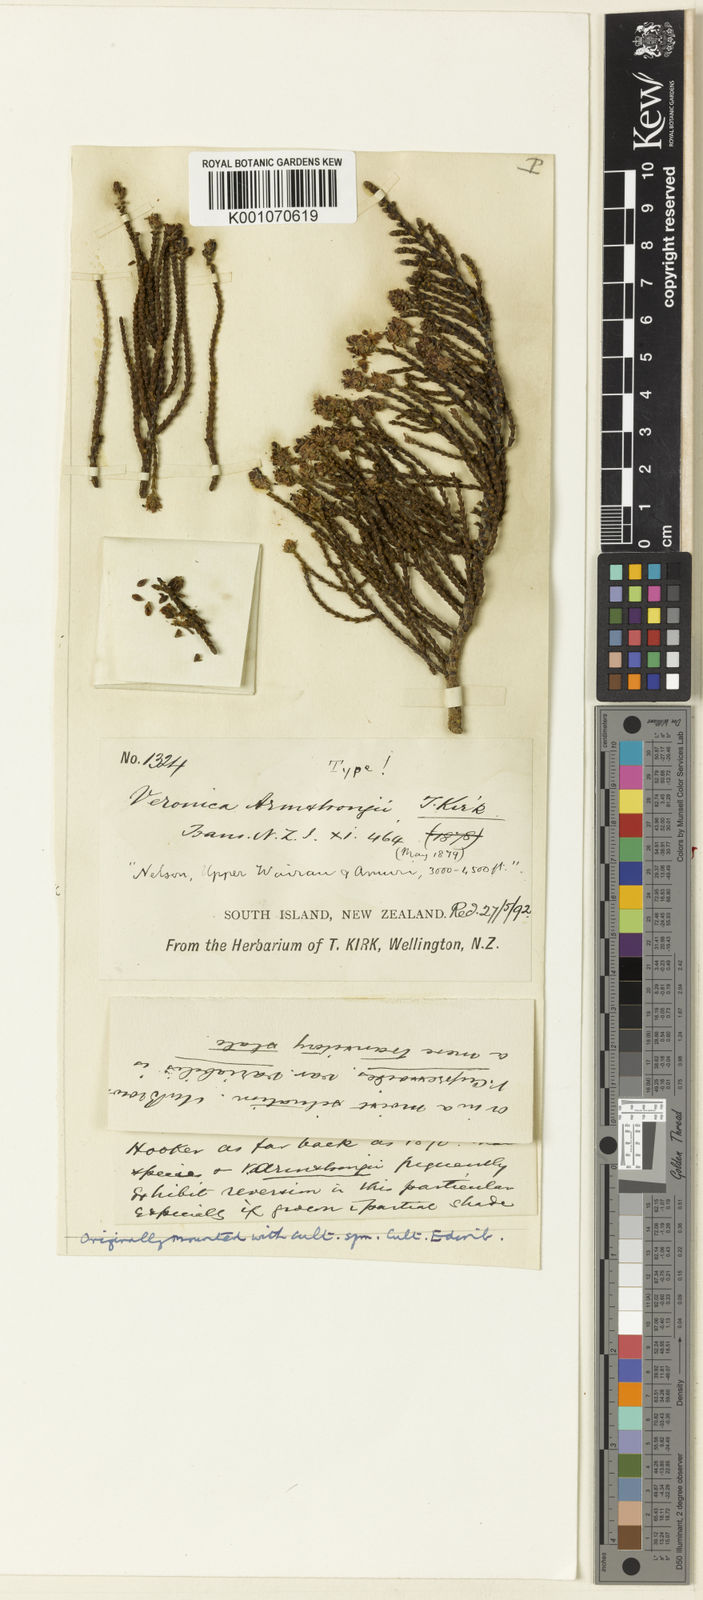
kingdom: Plantae
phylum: Tracheophyta
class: Magnoliopsida
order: Lamiales
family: Plantaginaceae
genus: Veronica
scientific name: Veronica armstrongii
